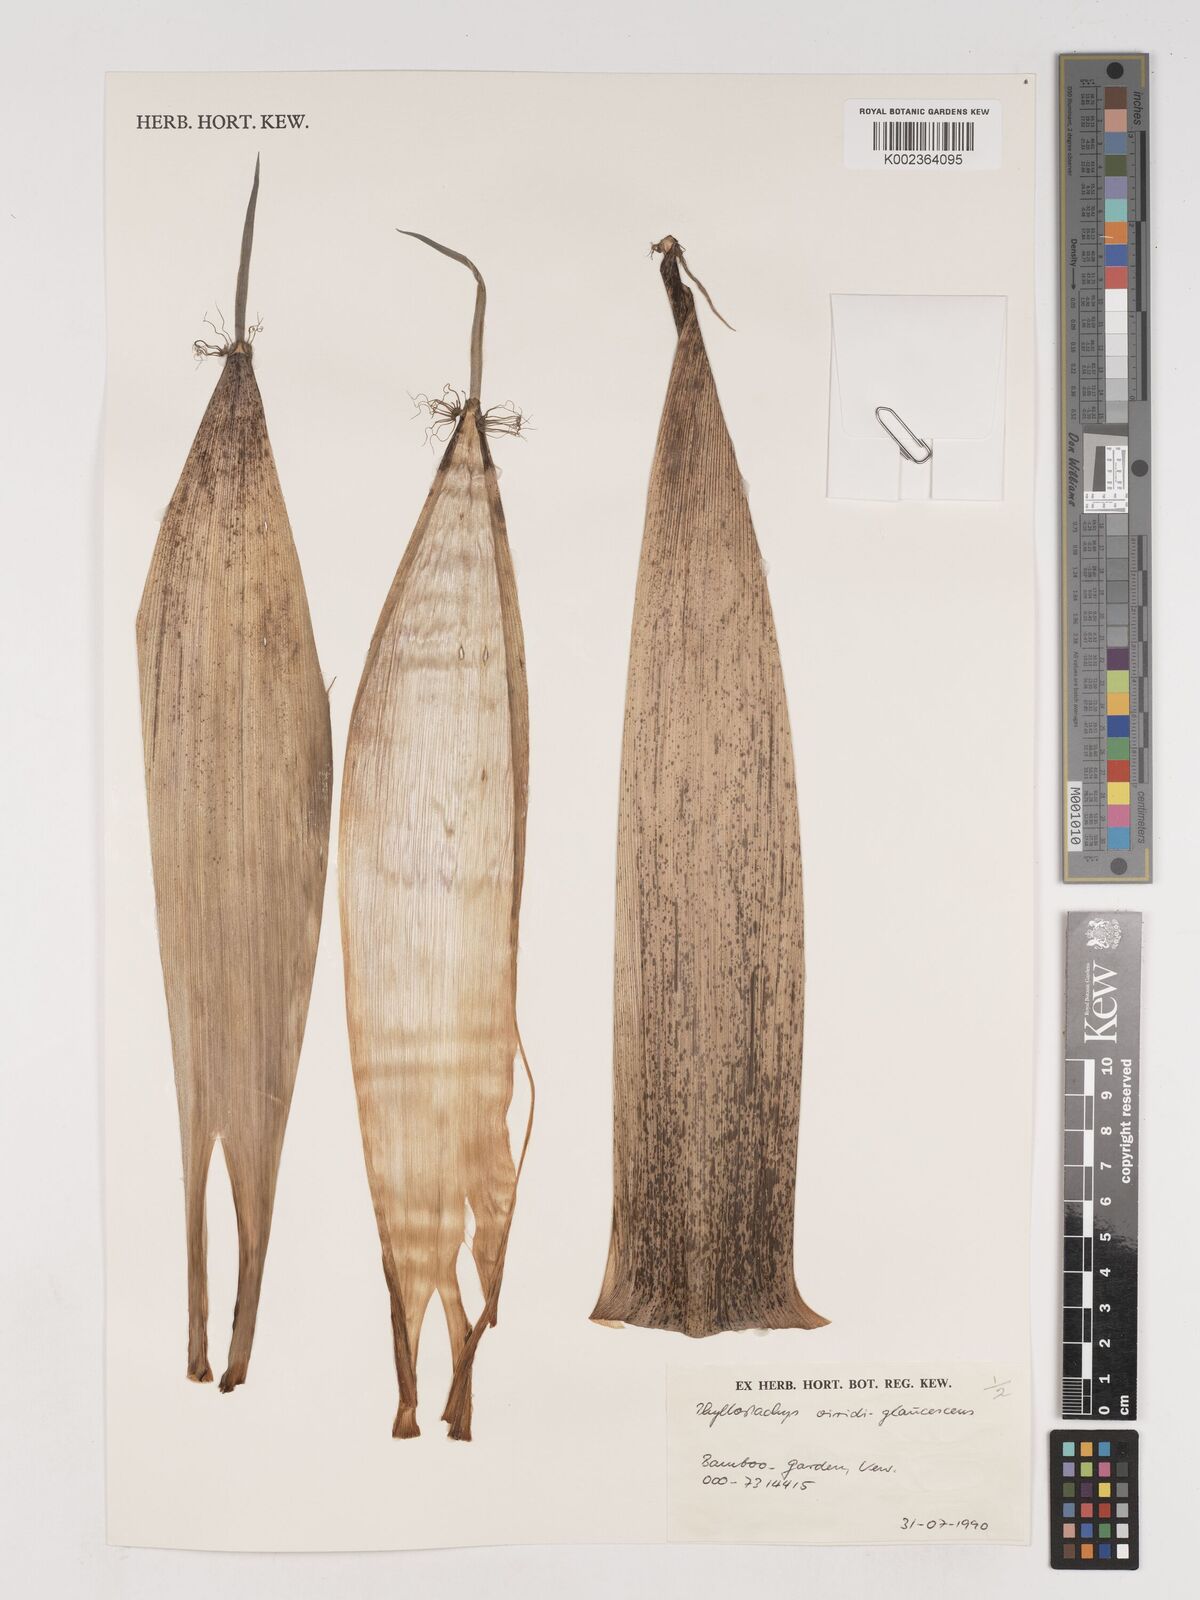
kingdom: Plantae
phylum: Tracheophyta
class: Liliopsida
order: Poales
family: Poaceae
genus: Phyllostachys
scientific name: Phyllostachys viridiglaucescens
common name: Greenwax golden bamboo
